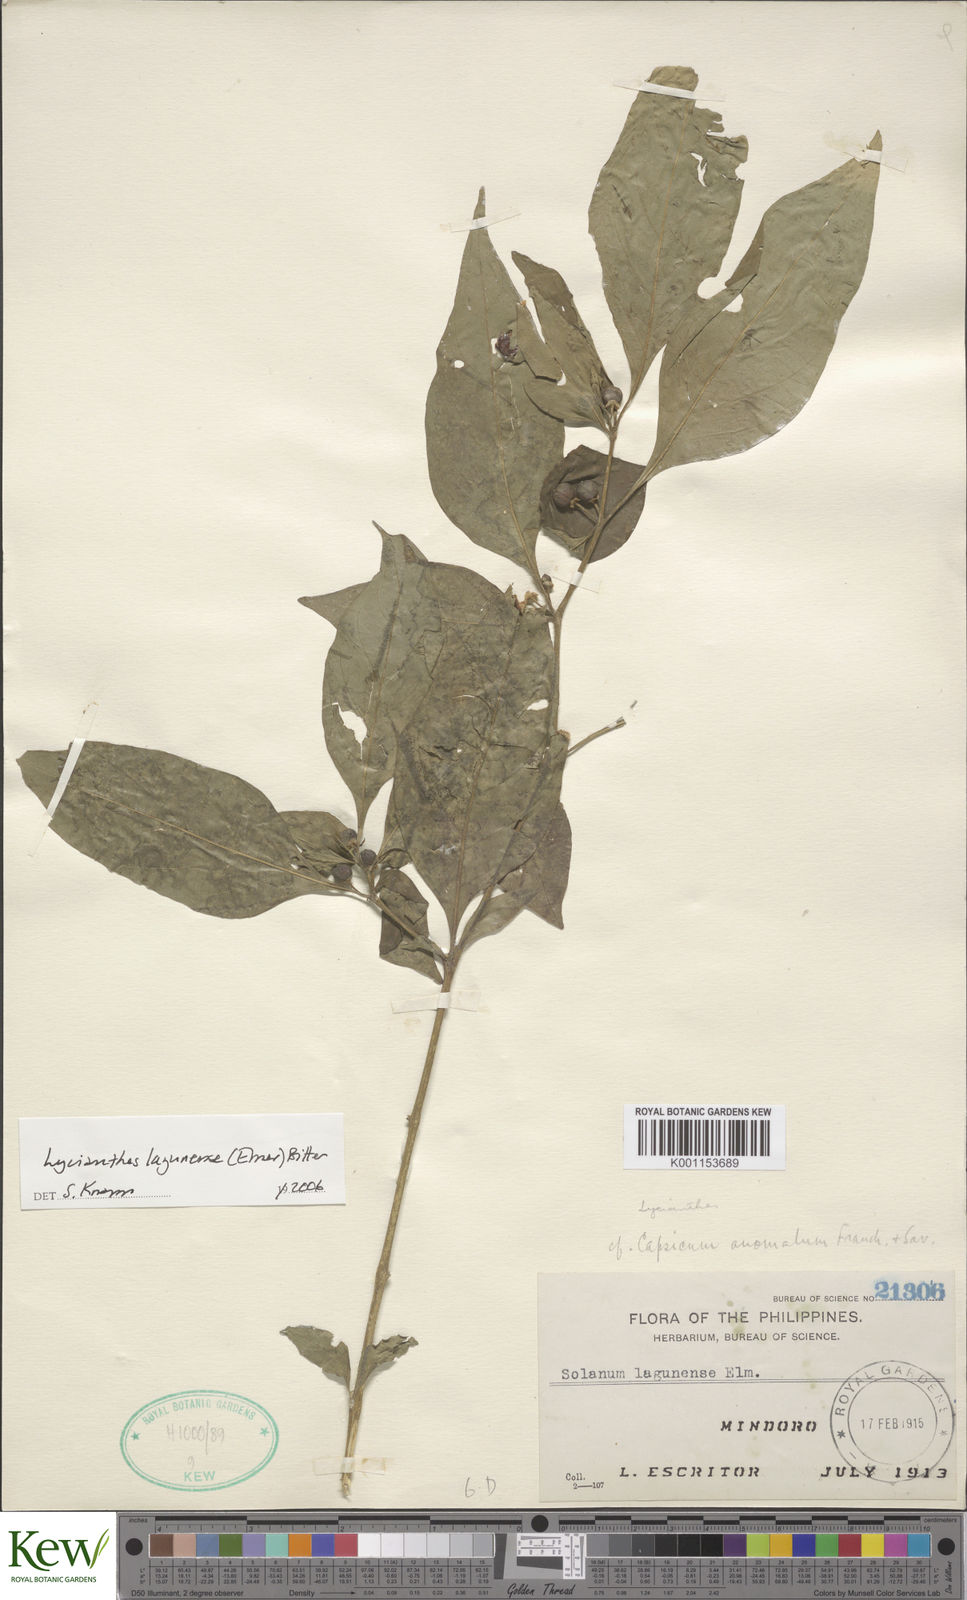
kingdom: Plantae
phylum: Tracheophyta
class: Magnoliopsida
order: Solanales
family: Solanaceae
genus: Lycianthes
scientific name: Lycianthes lagunensis
